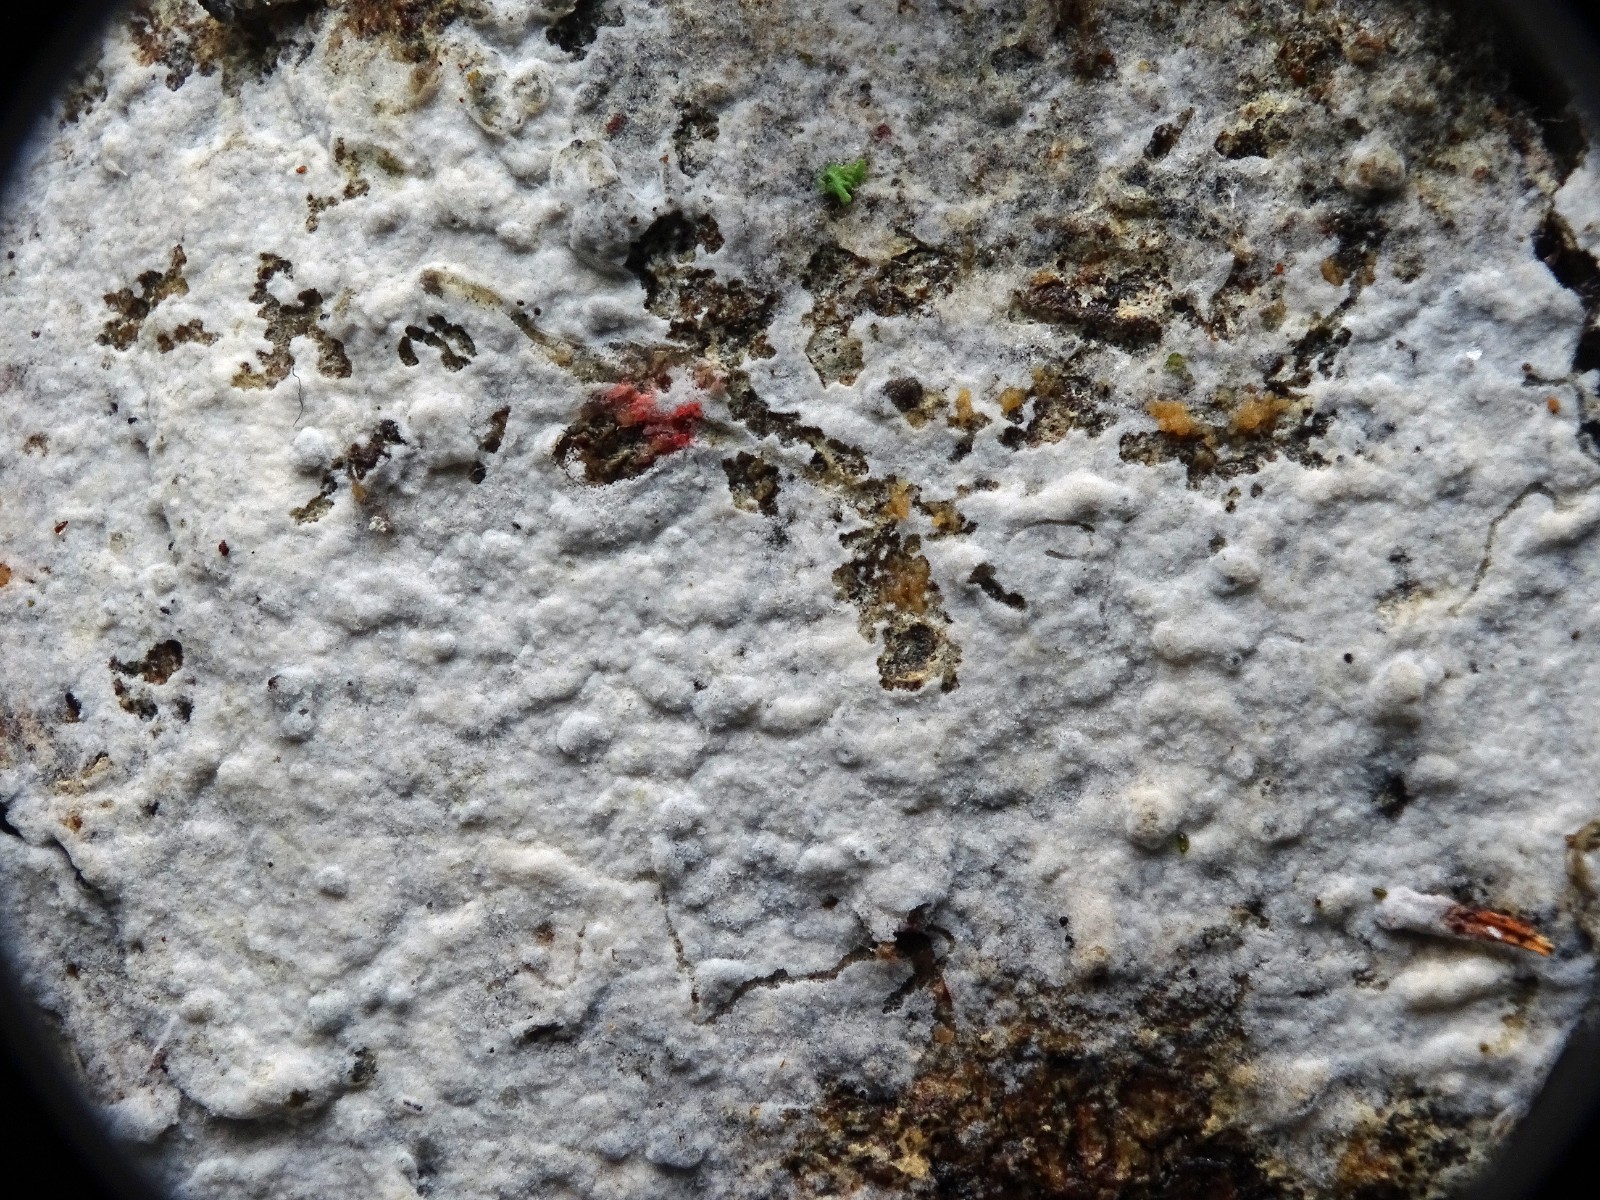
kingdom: Fungi
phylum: Basidiomycota
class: Agaricomycetes
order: Atheliales
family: Atheliaceae
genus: Athelia
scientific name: Athelia epiphylla
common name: almindelig barkhinde
